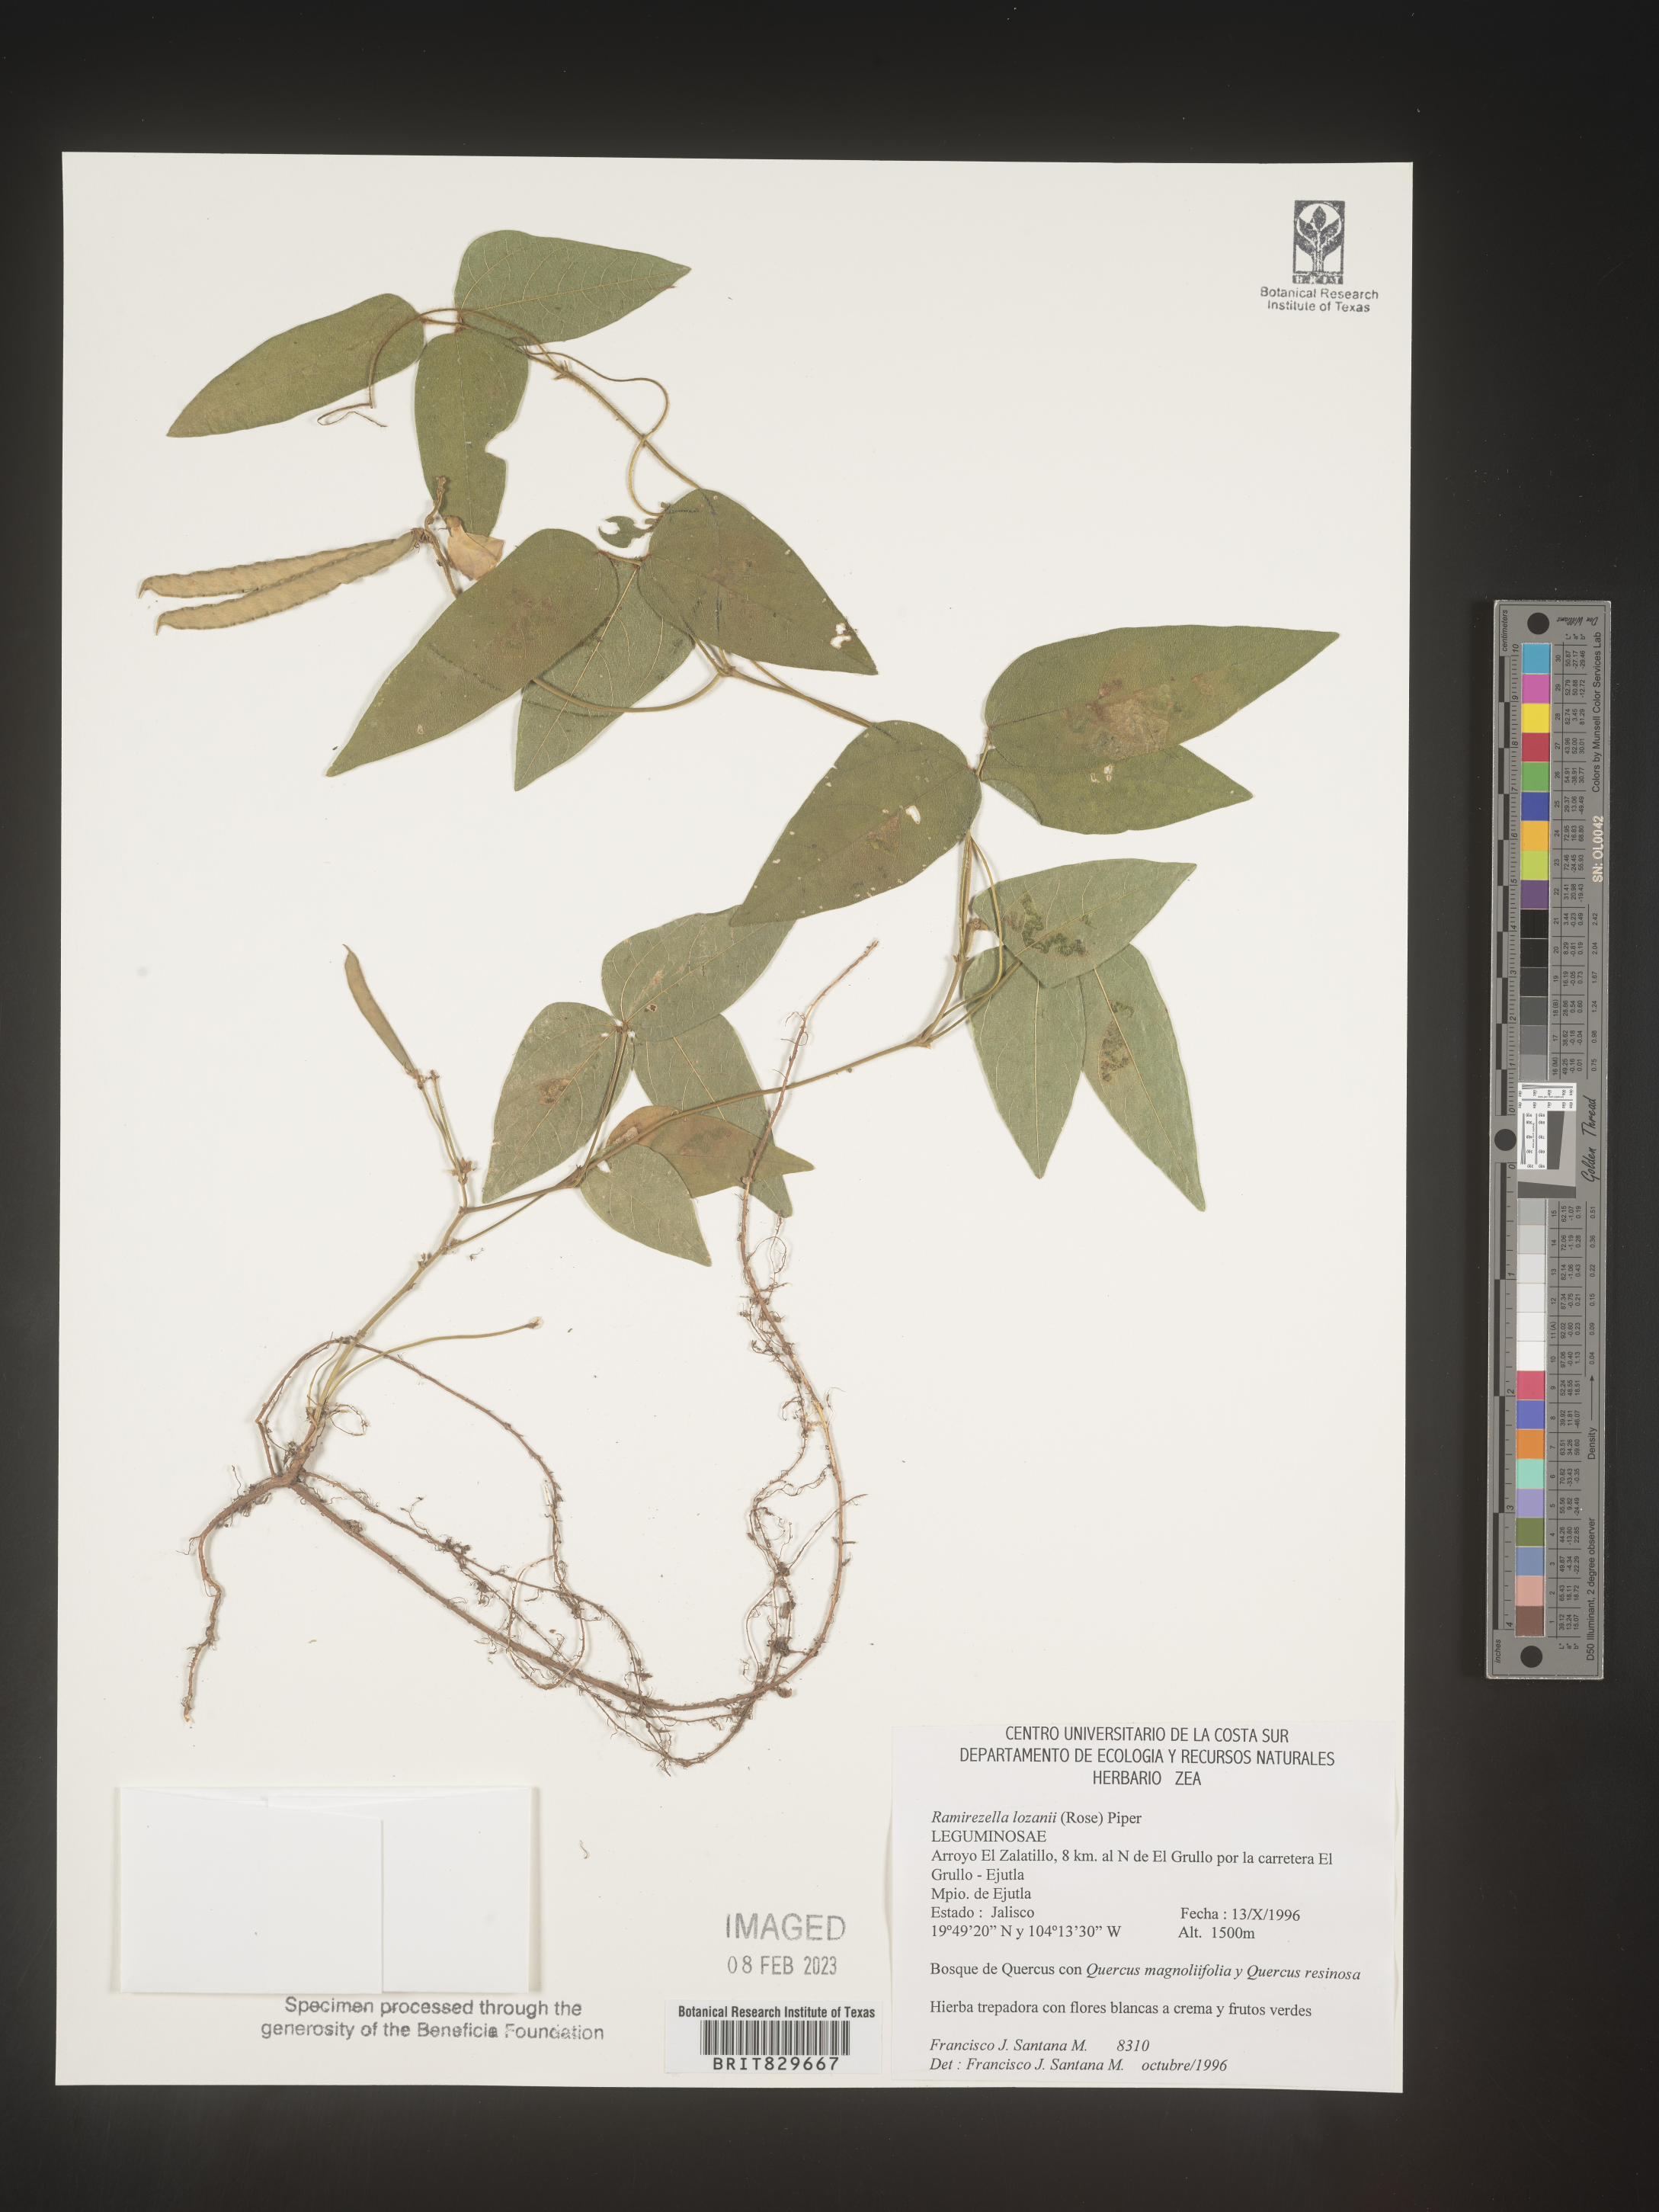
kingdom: Plantae
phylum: Tracheophyta
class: Magnoliopsida
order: Fabales
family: Fabaceae
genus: Ramirezella
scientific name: Ramirezella
